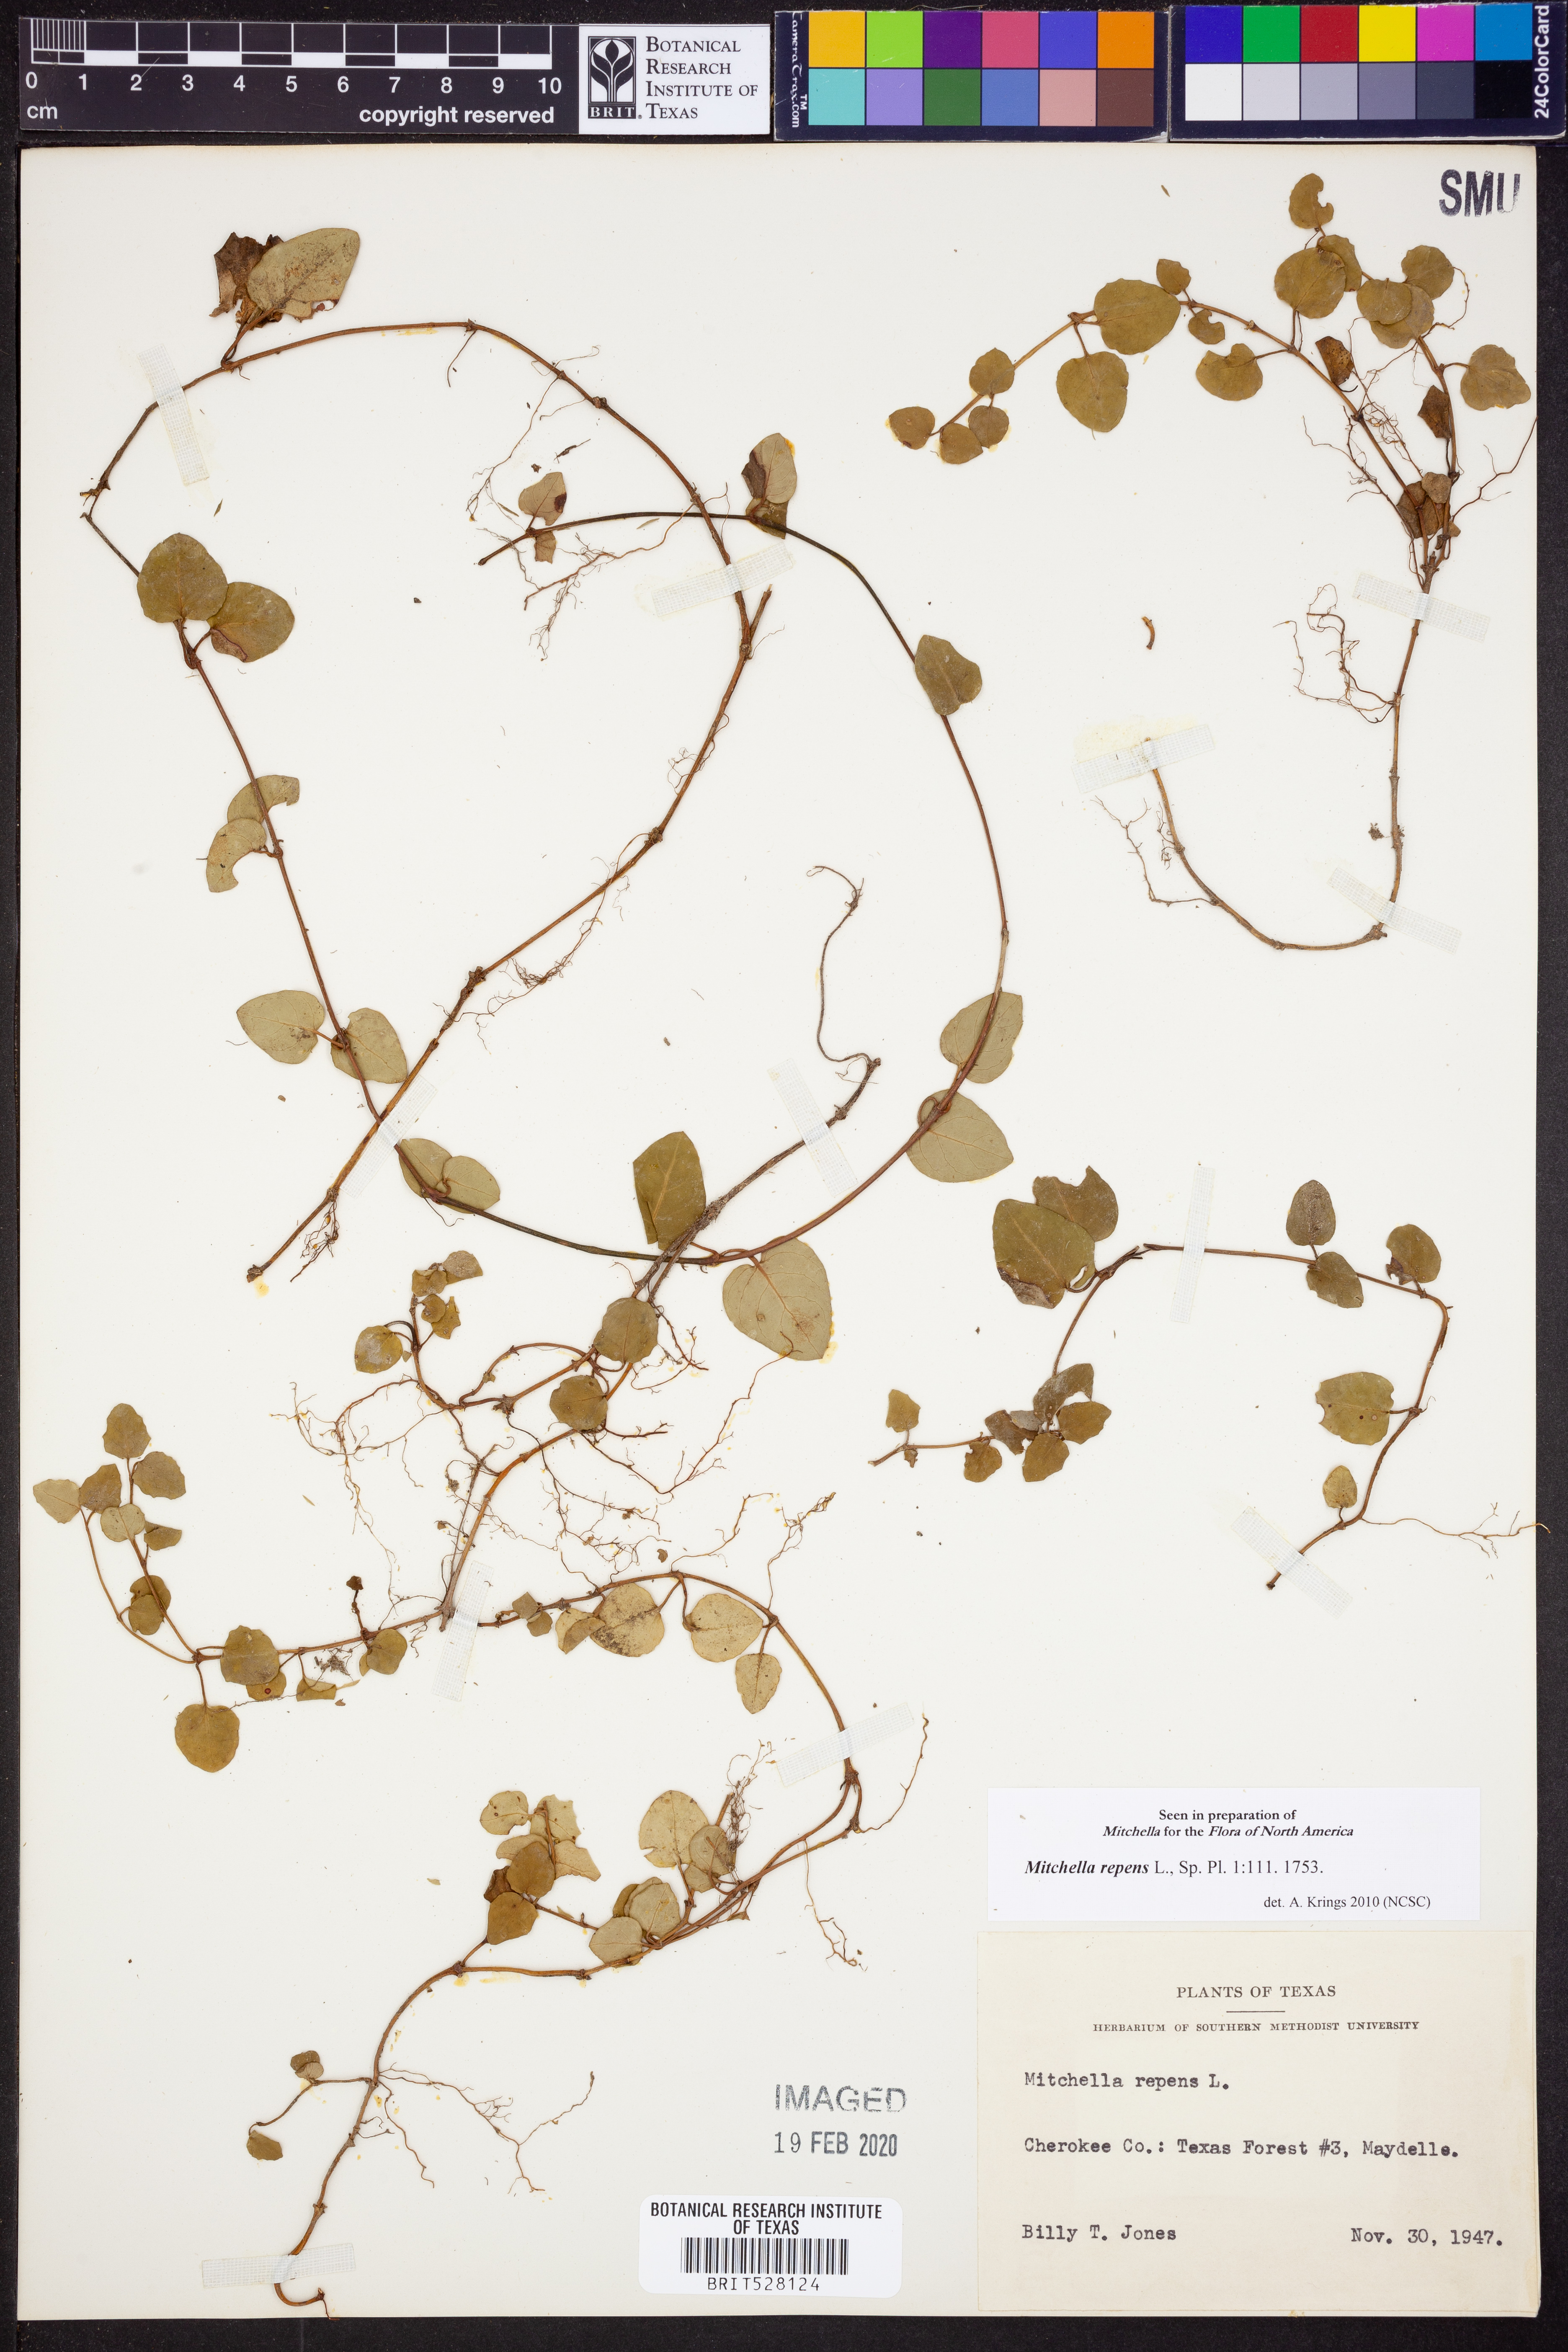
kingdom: Plantae
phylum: Tracheophyta
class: Magnoliopsida
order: Gentianales
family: Rubiaceae
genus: Mitchella
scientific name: Mitchella repens
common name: Partridge-berry
